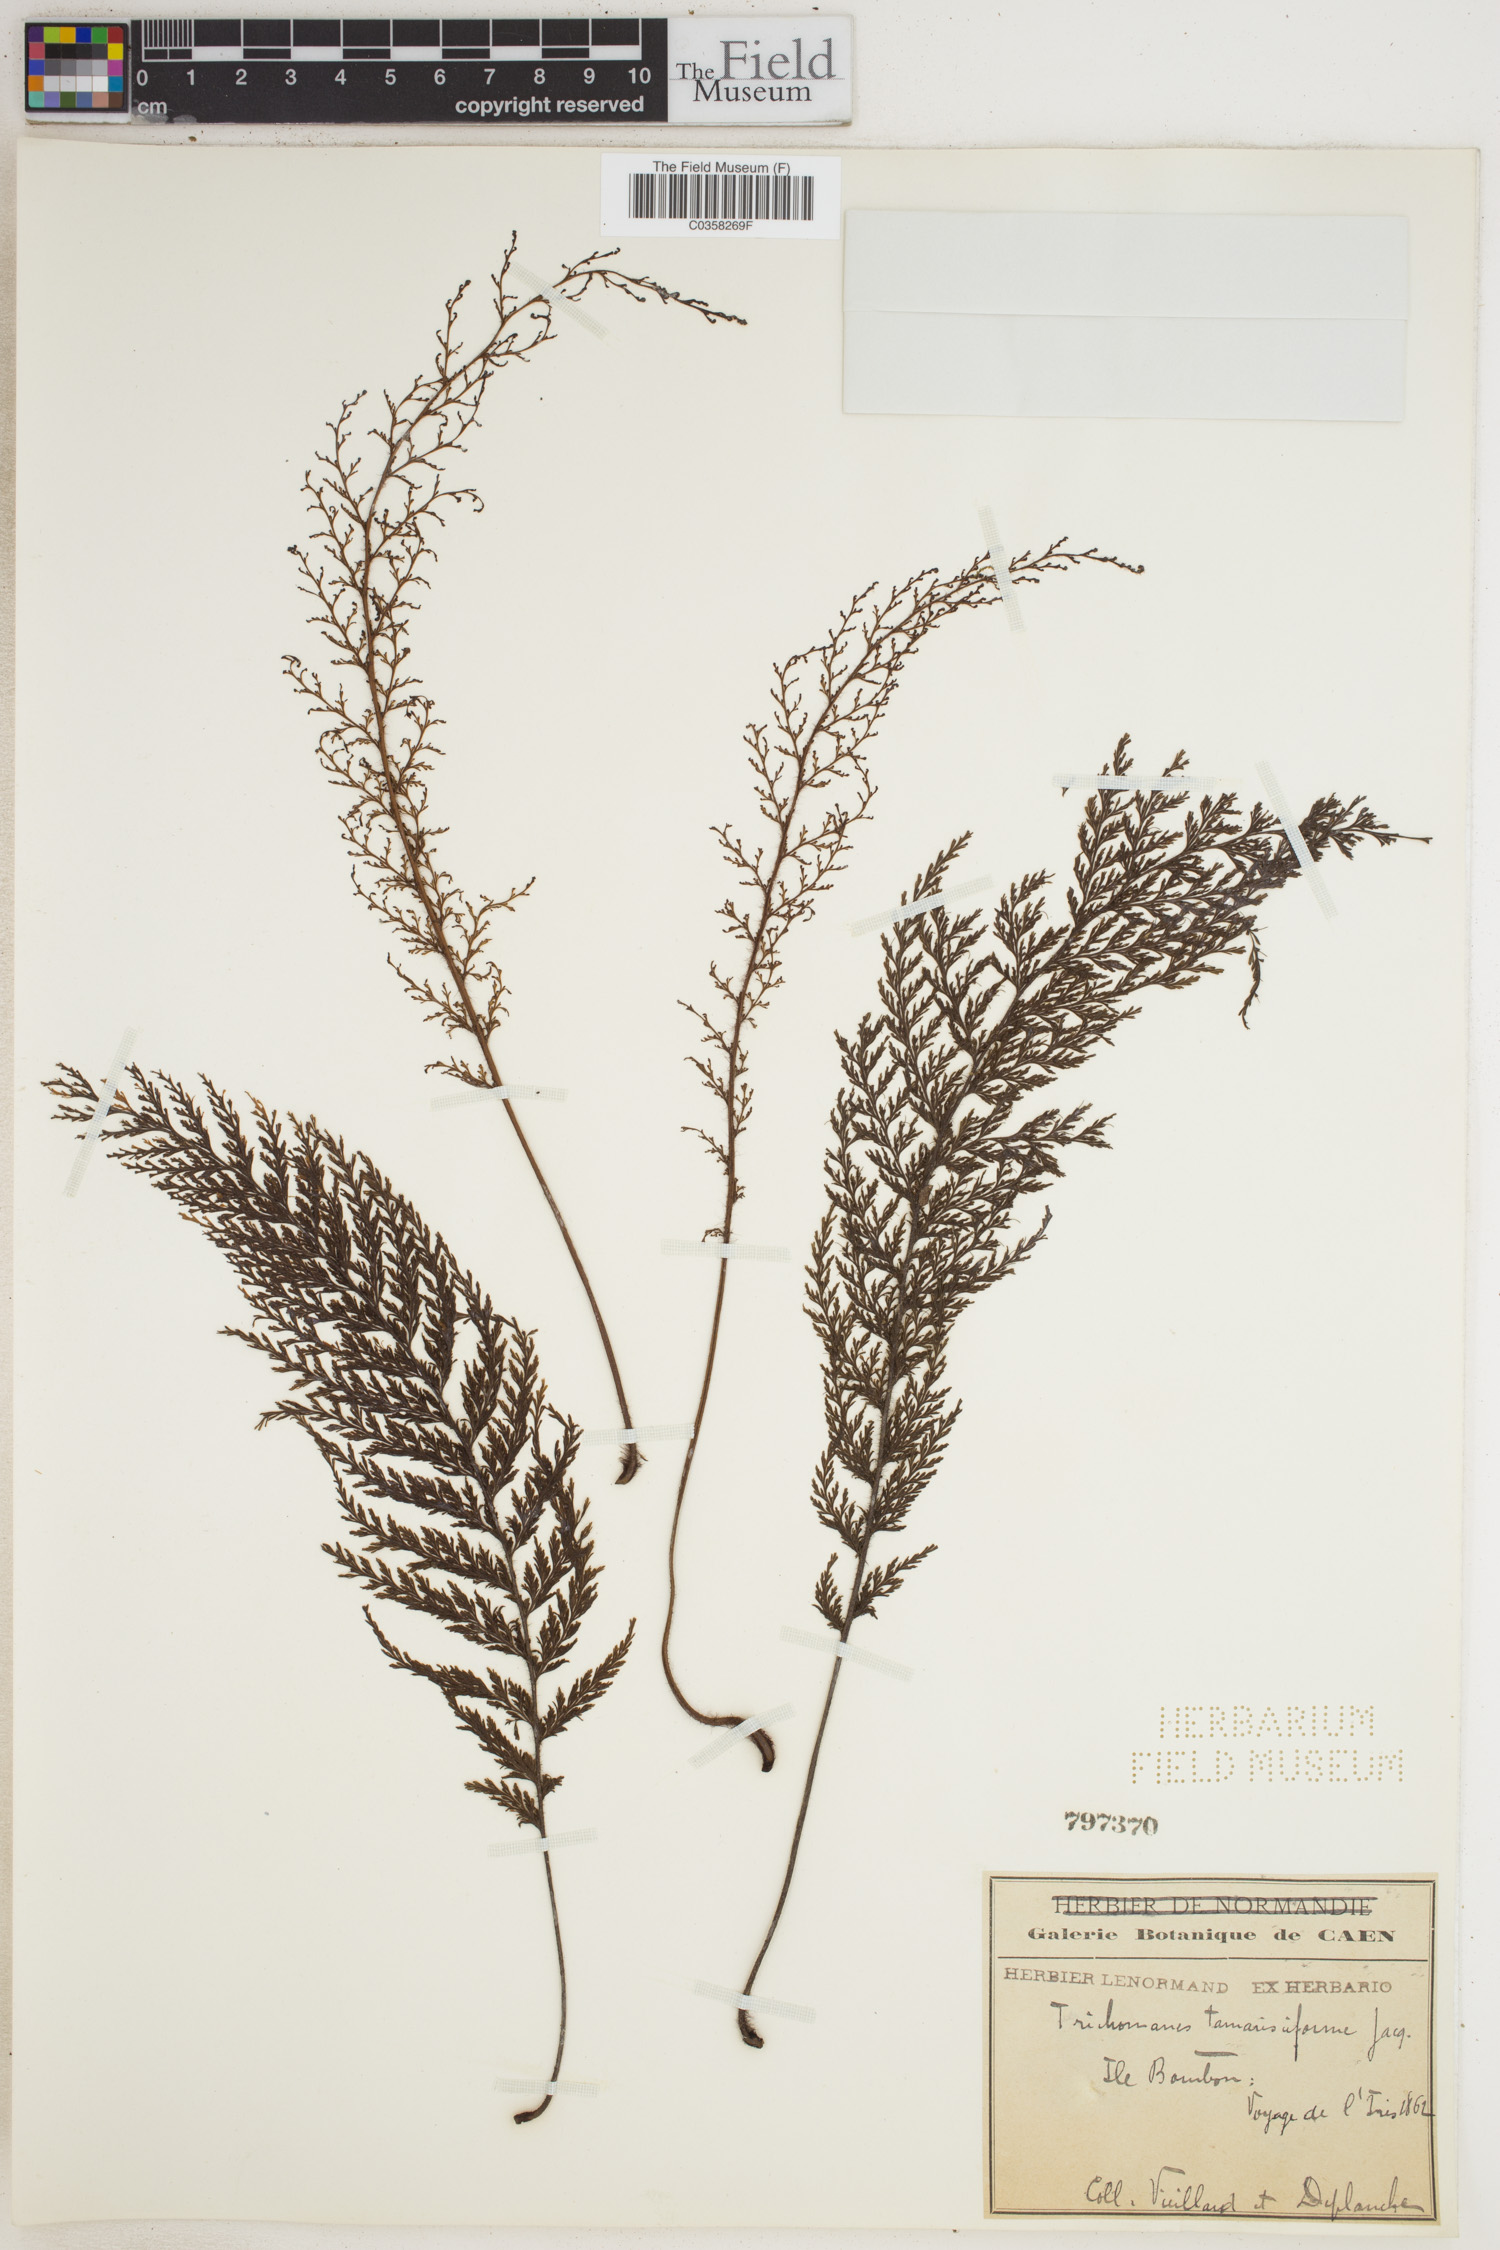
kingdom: Plantae
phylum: Tracheophyta
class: Polypodiopsida
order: Hymenophyllales
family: Hymenophyllaceae
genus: Abrodictyum
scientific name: Abrodictyum tamarisciforme
